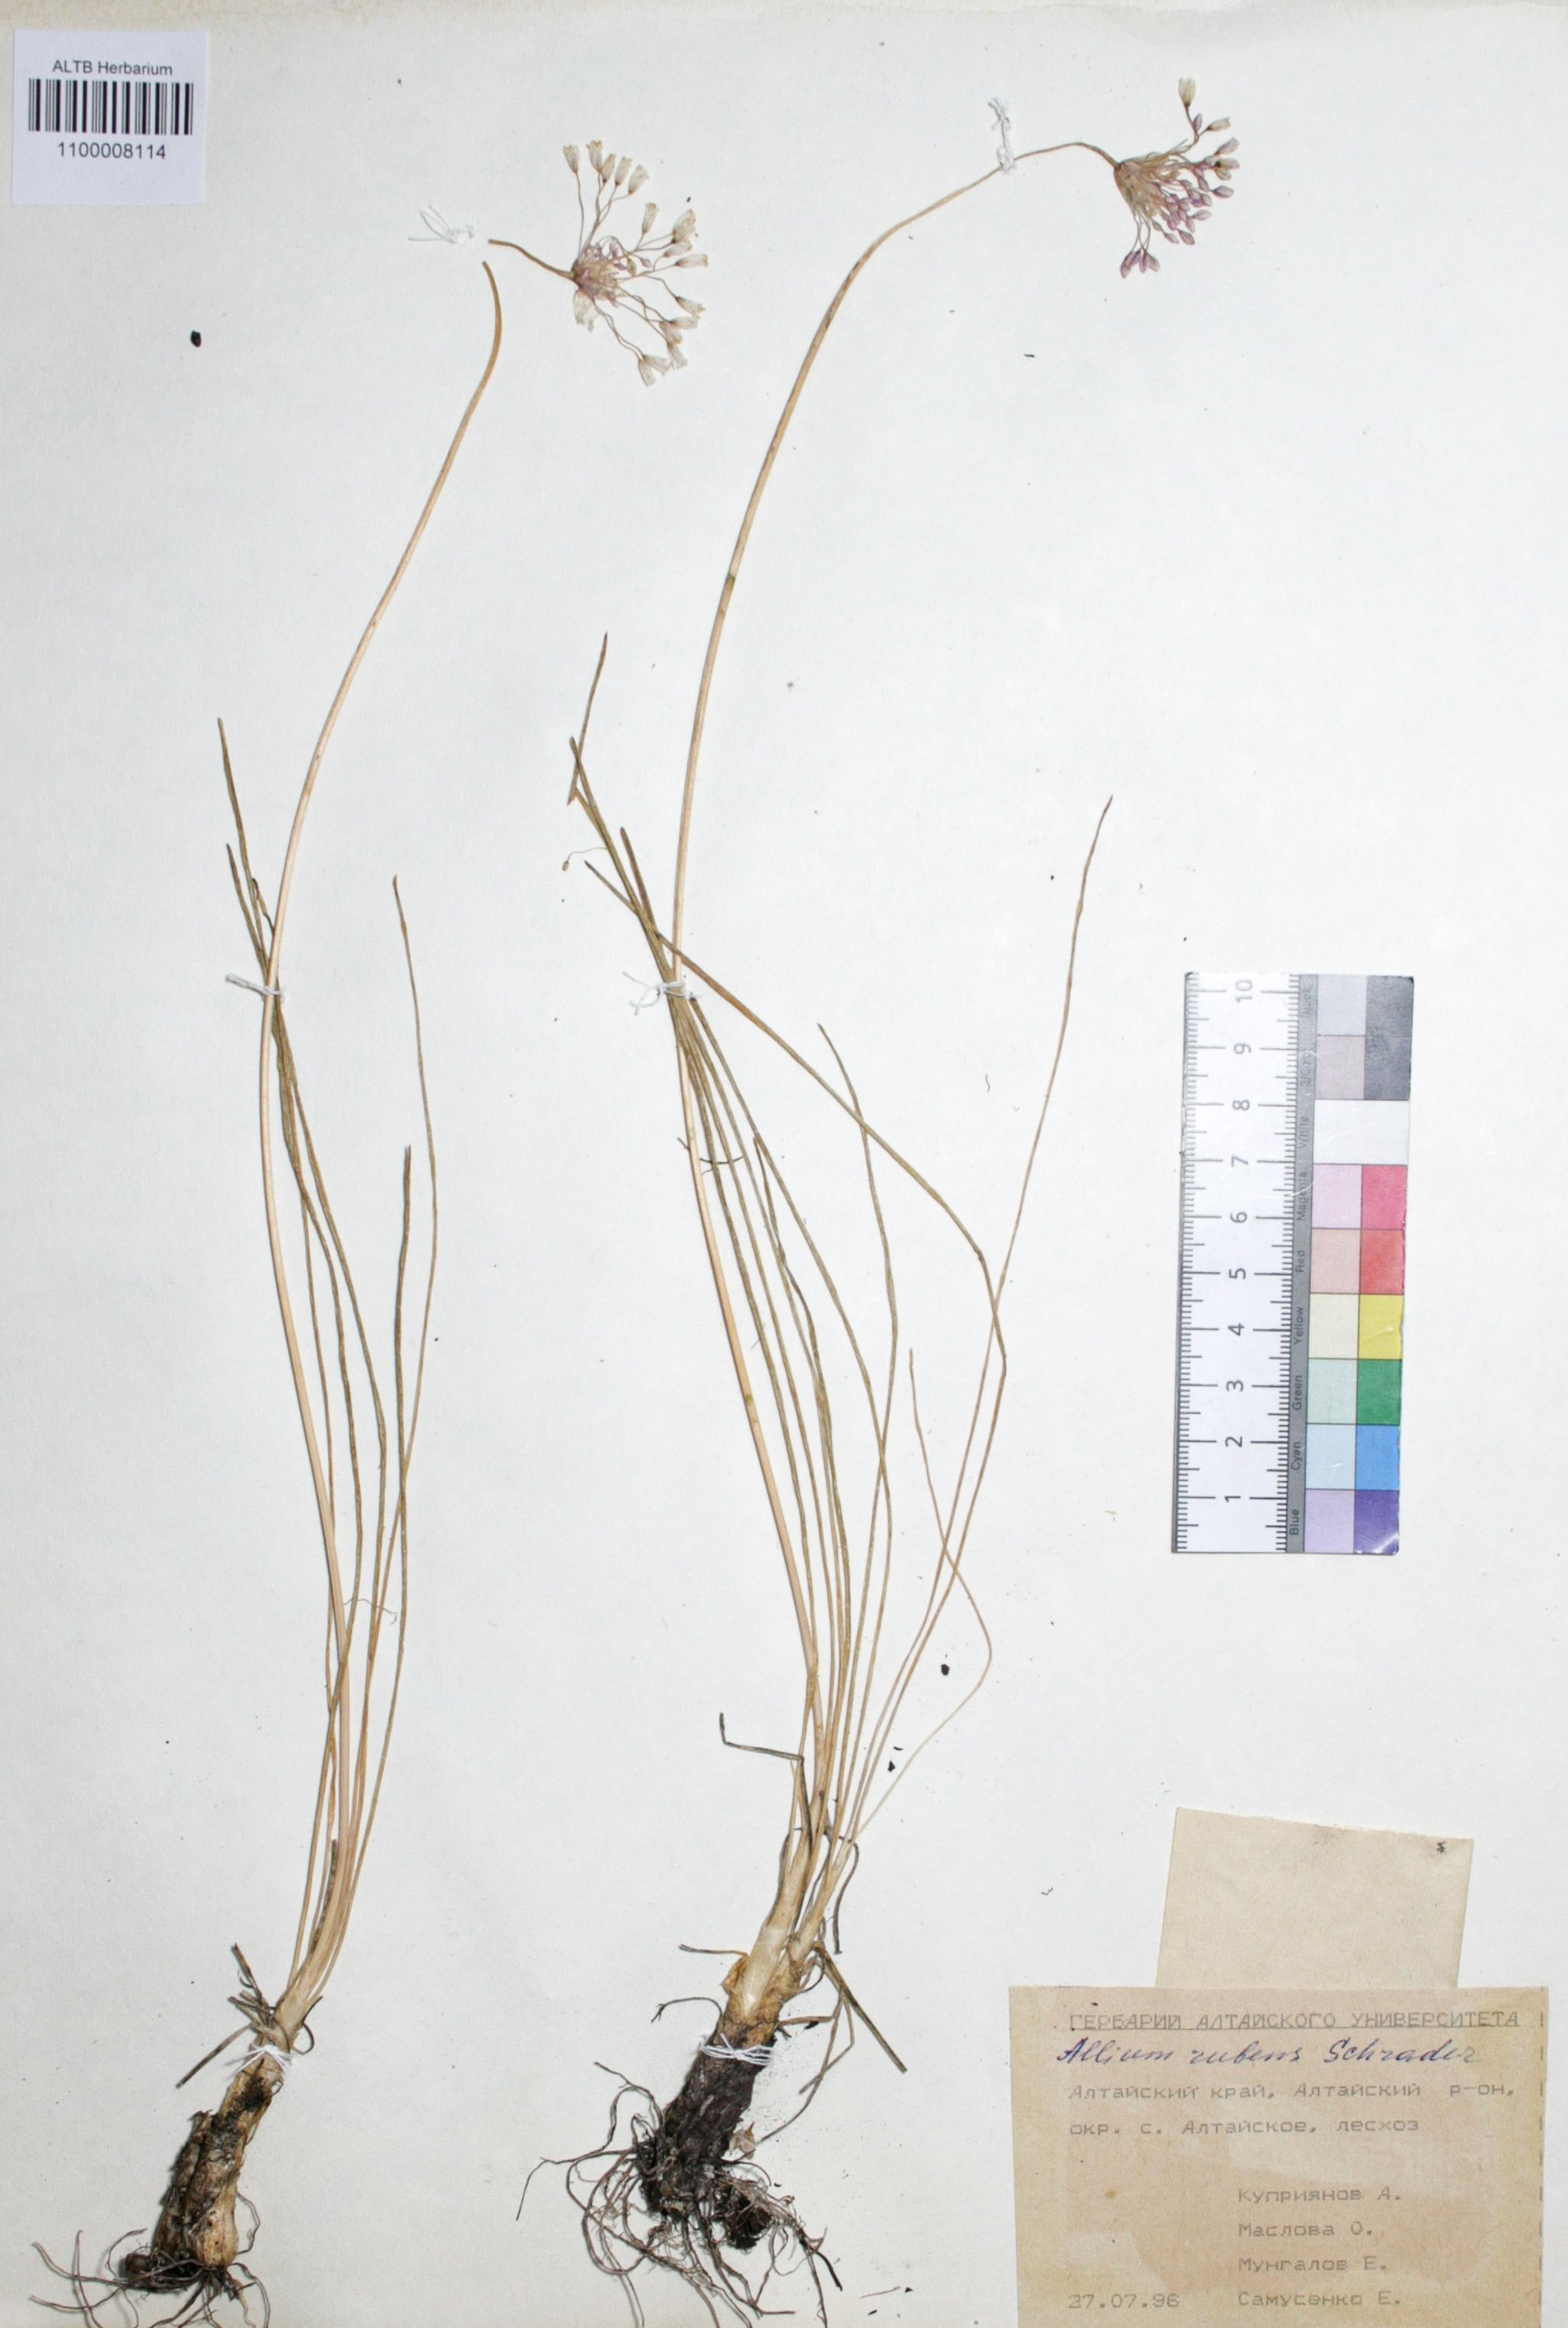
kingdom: Plantae
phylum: Tracheophyta
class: Liliopsida
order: Asparagales
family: Amaryllidaceae
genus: Allium
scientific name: Allium rubens
